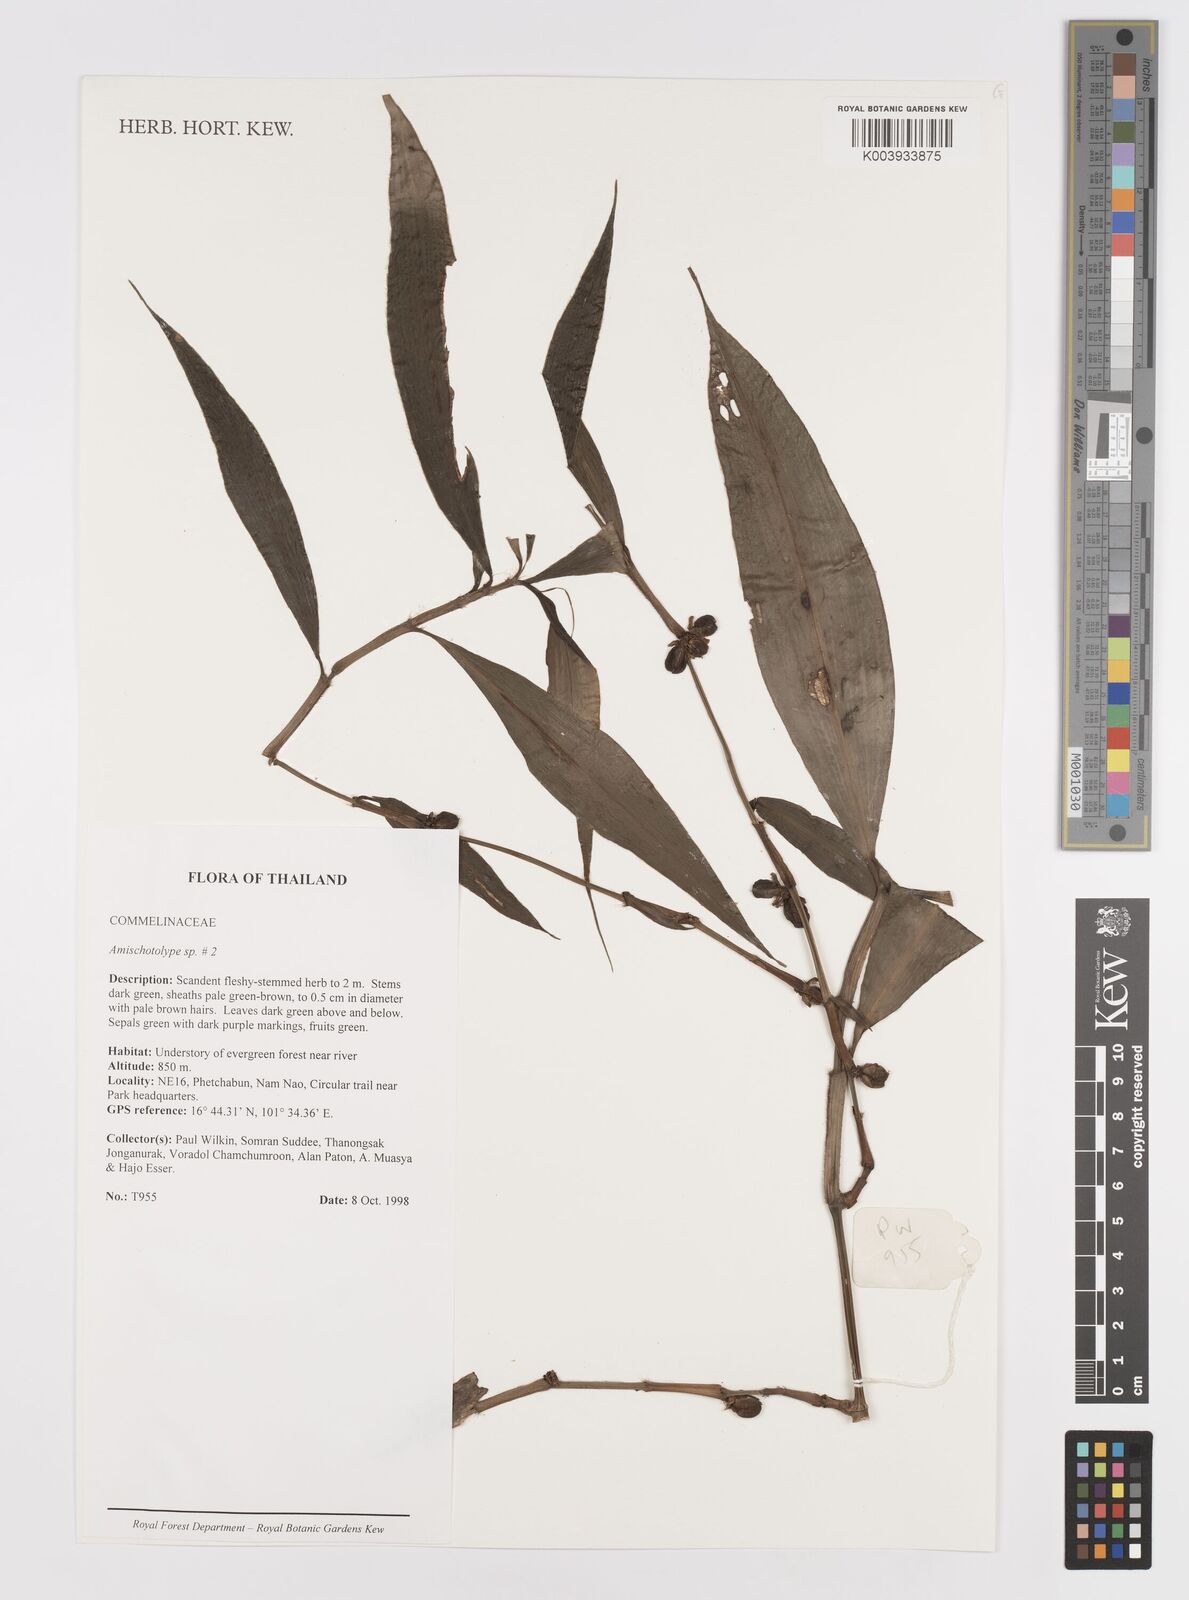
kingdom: Plantae
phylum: Tracheophyta
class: Liliopsida
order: Commelinales
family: Commelinaceae
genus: Amischotolype
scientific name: Amischotolype
